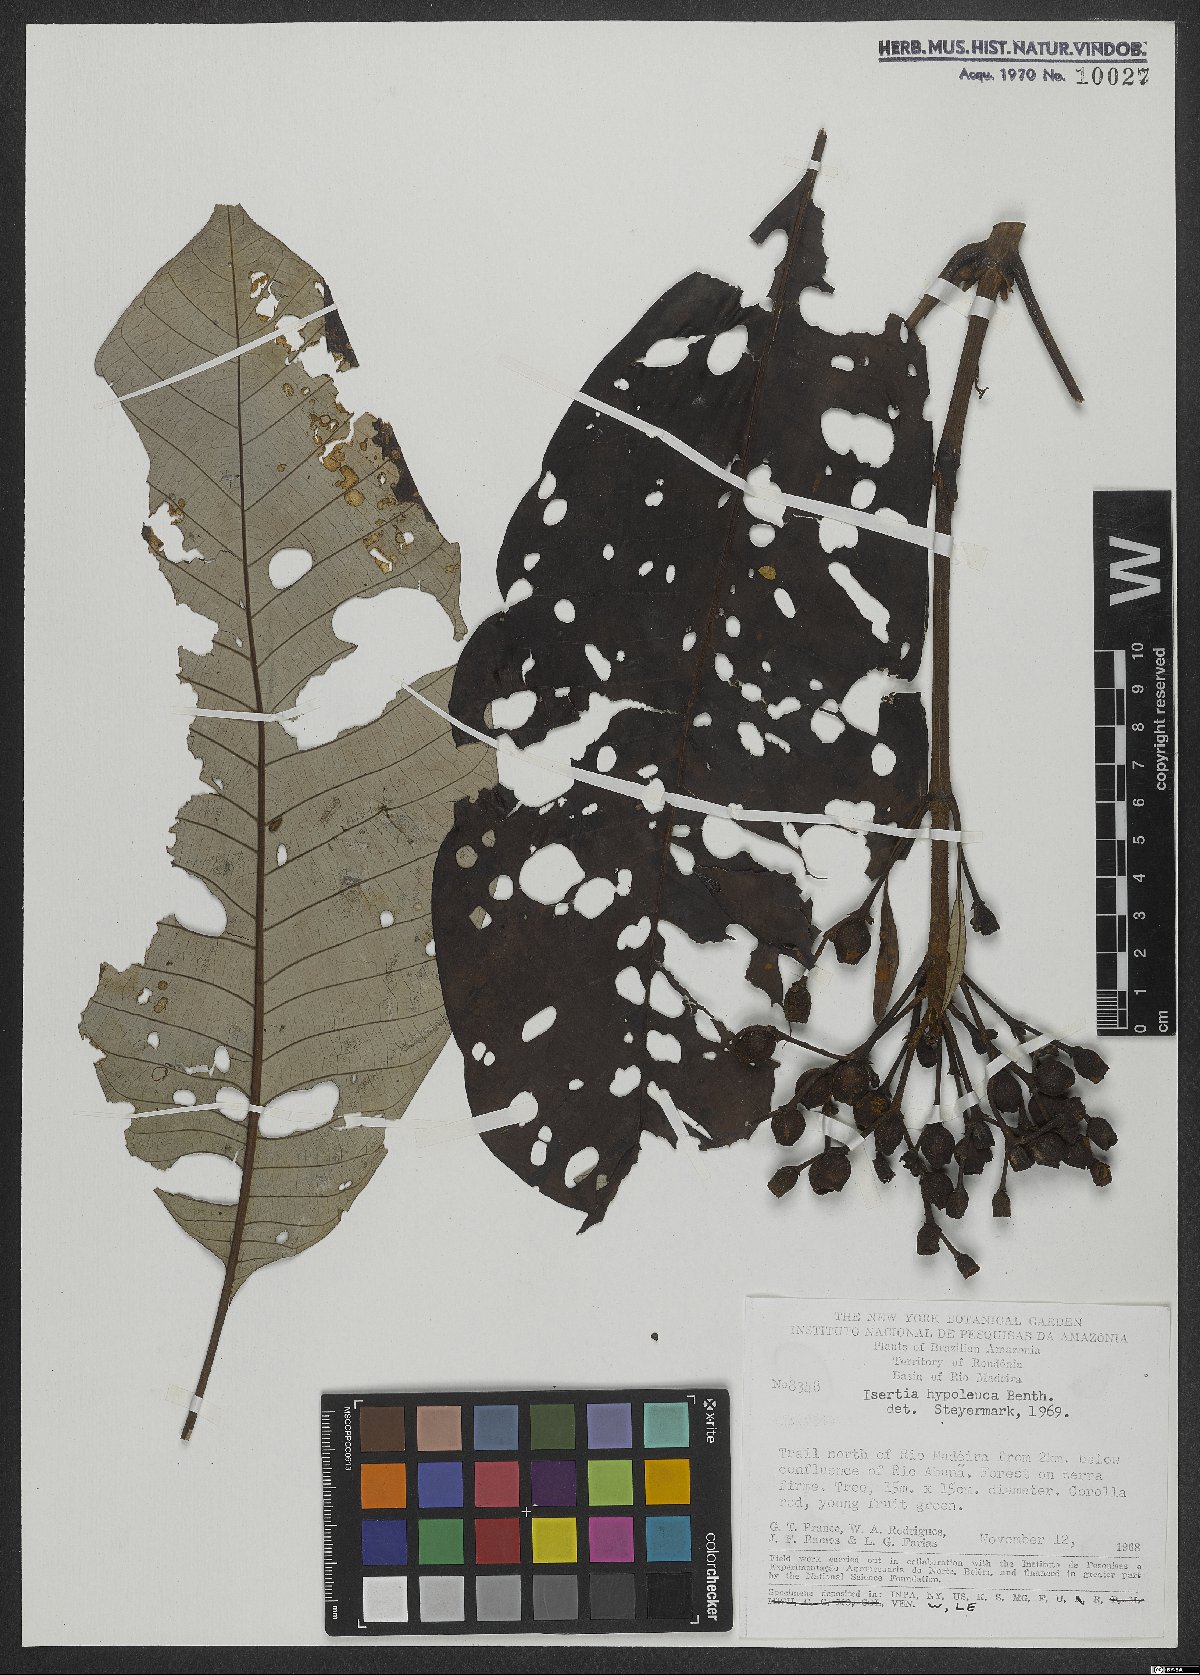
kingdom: Plantae
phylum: Tracheophyta
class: Magnoliopsida
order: Gentianales
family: Rubiaceae
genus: Isertia
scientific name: Isertia hypoleuca
